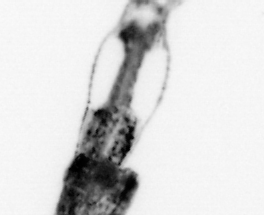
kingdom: Animalia
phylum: Arthropoda
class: Copepoda
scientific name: Copepoda
